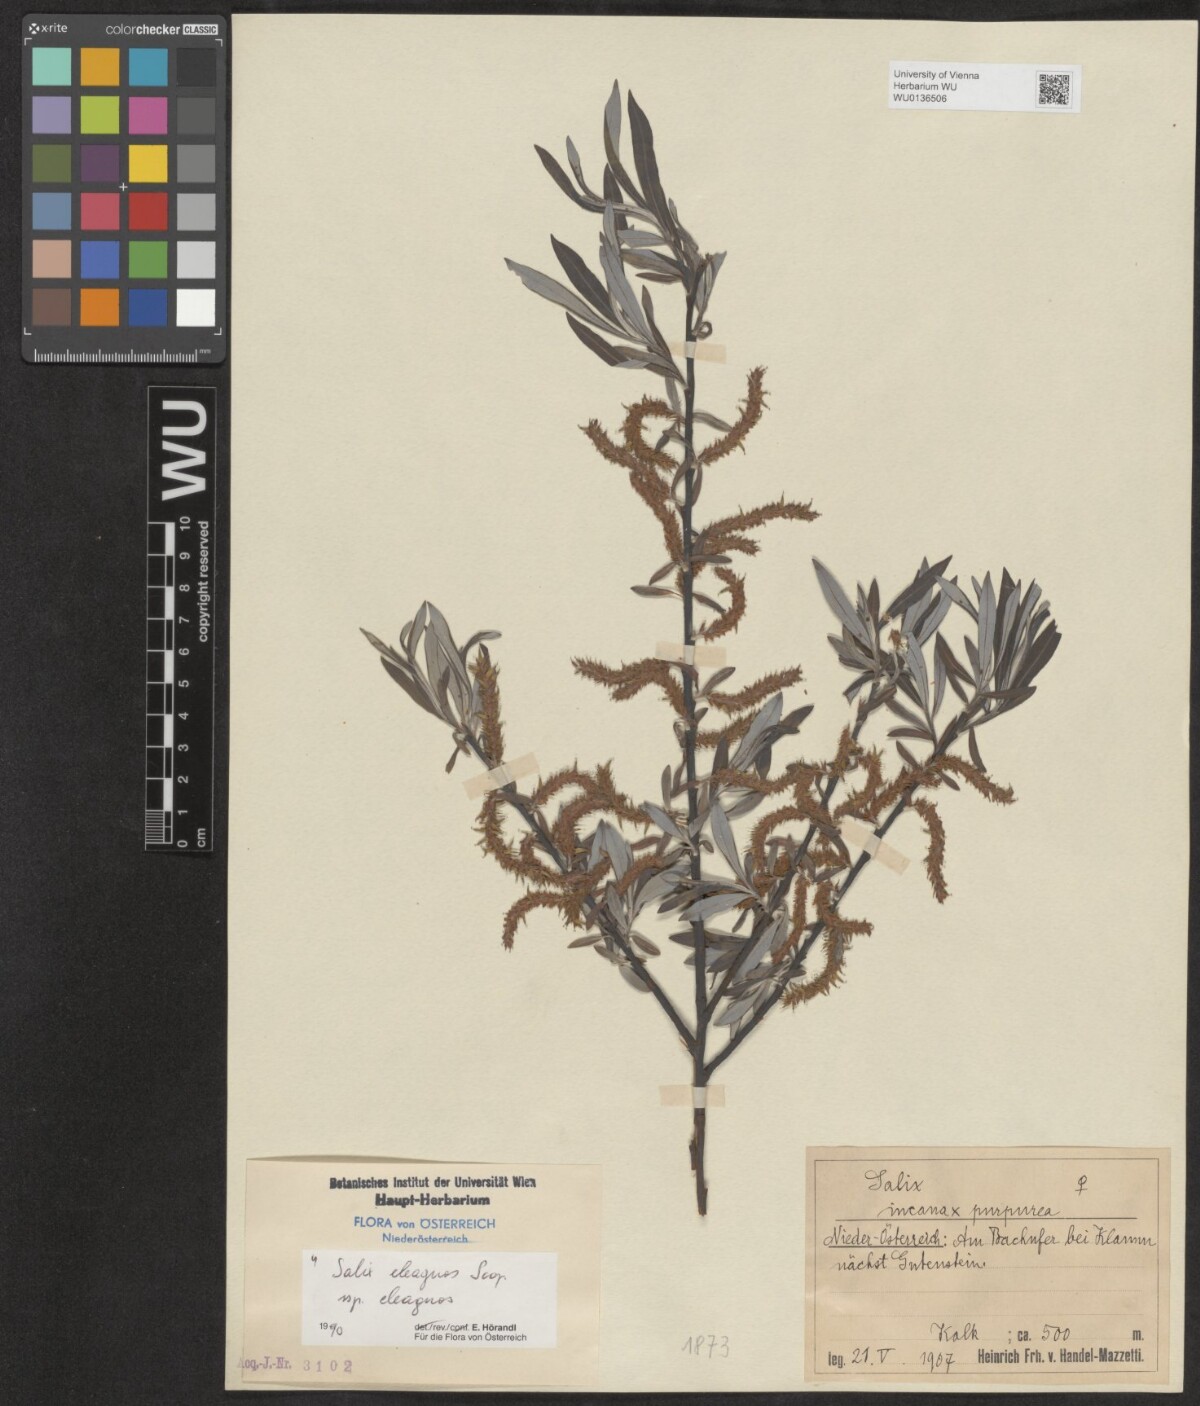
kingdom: Plantae
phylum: Tracheophyta
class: Magnoliopsida
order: Malpighiales
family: Salicaceae
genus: Salix
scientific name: Salix eleagnos
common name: Elaeagnus willow
